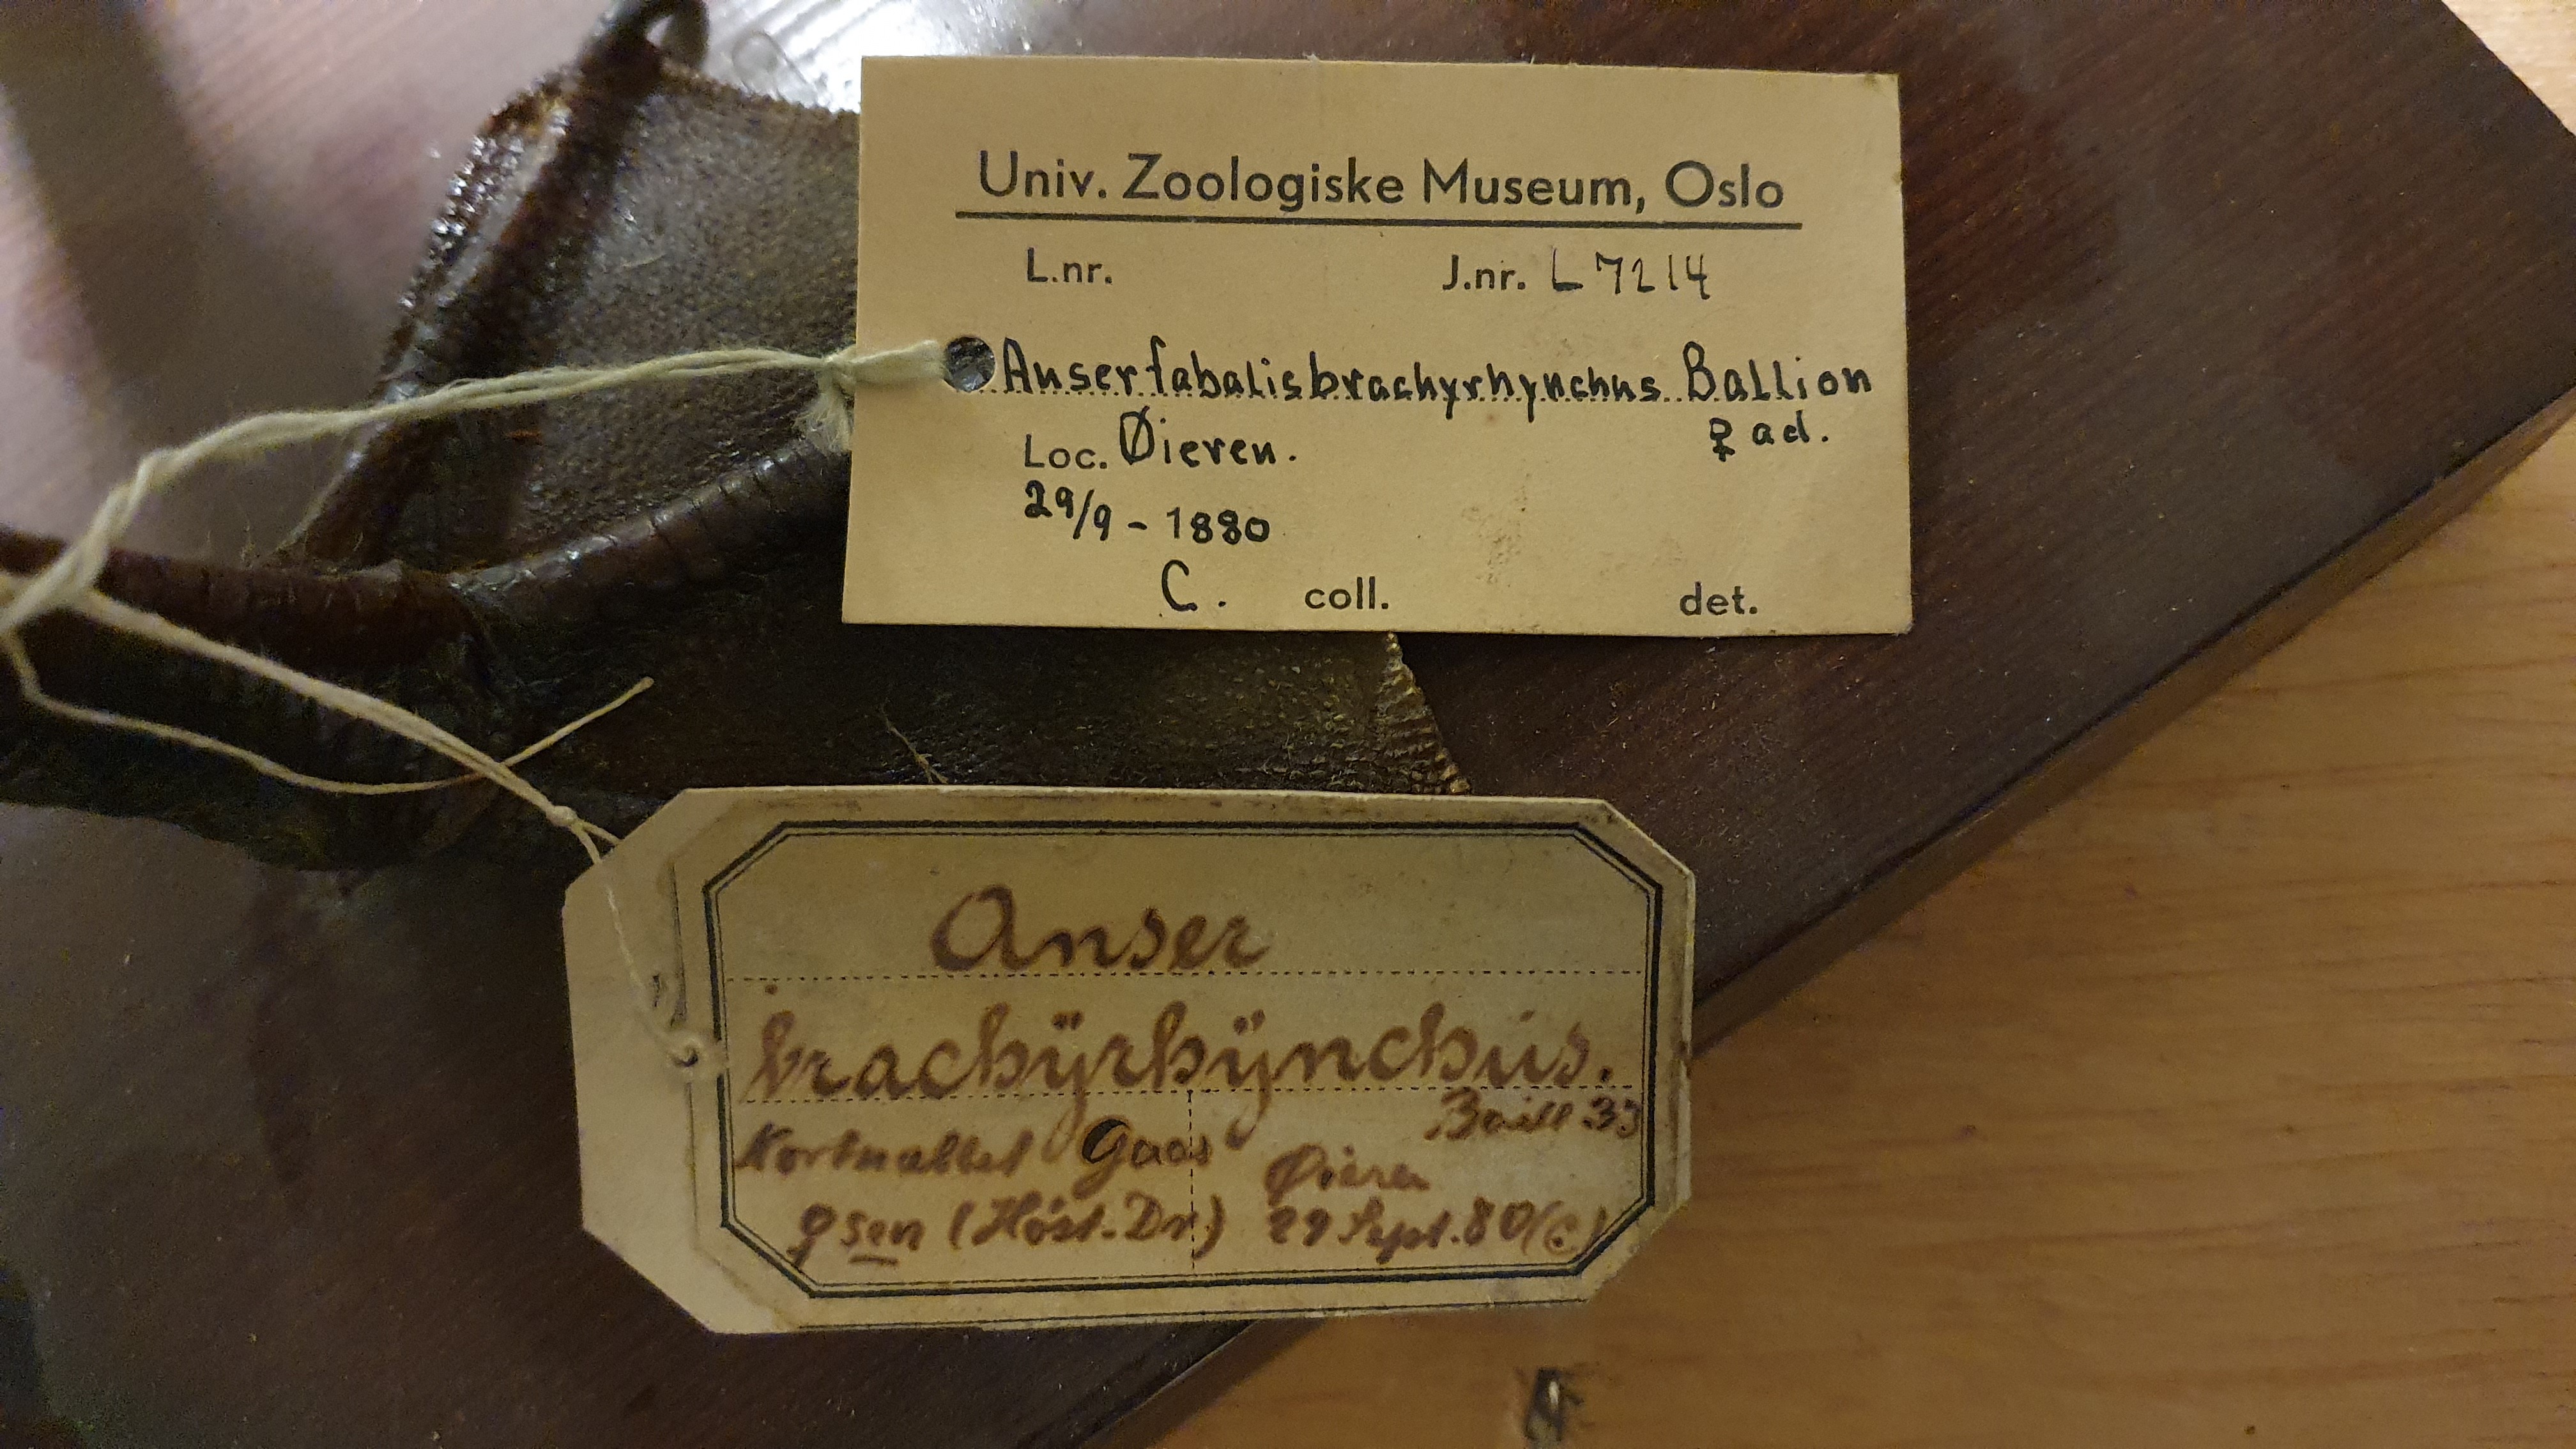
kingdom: Animalia
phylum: Chordata
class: Aves
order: Anseriformes
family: Anatidae
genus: Anser
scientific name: Anser brachyrhynchus
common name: Pink-footed goose
